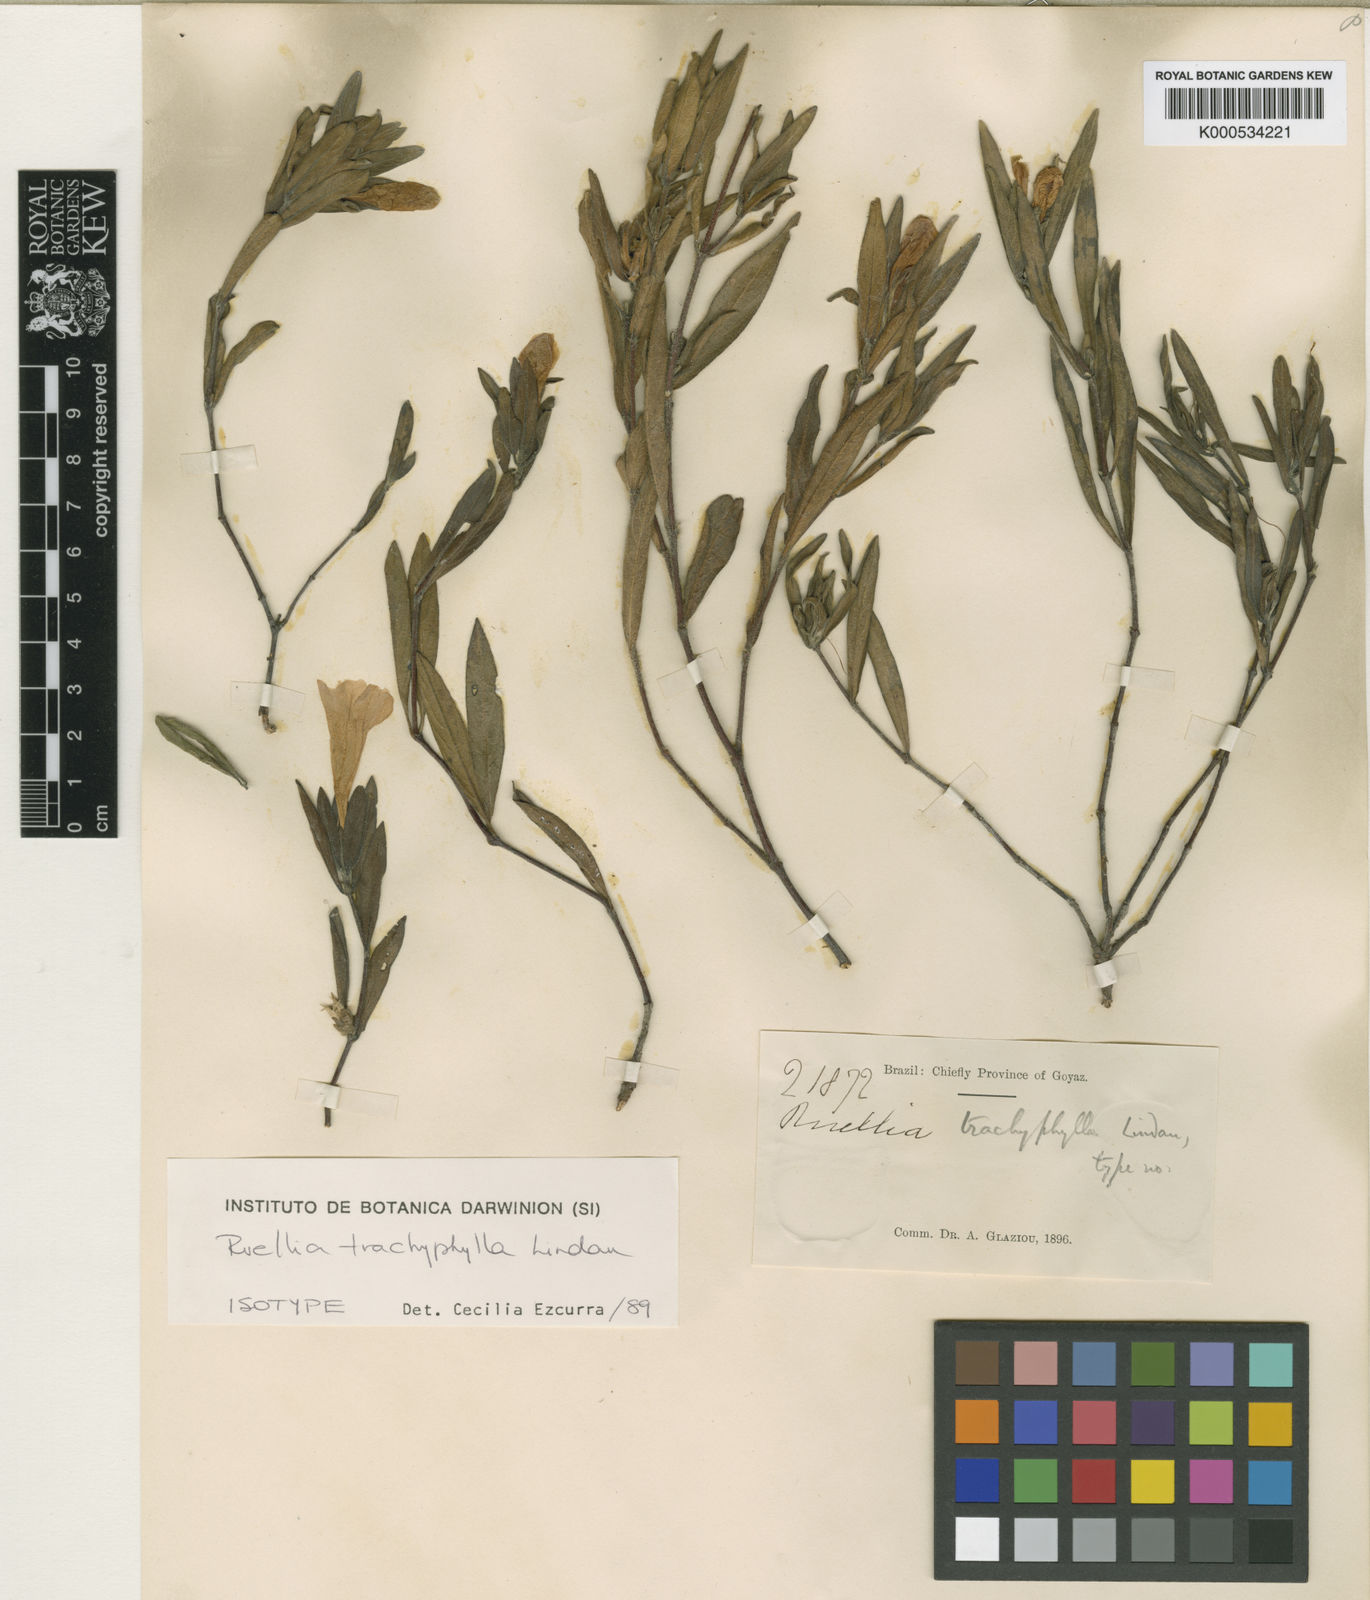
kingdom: Plantae
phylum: Tracheophyta
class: Magnoliopsida
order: Lamiales
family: Acanthaceae
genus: Ruellia
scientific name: Ruellia trachyphylla
